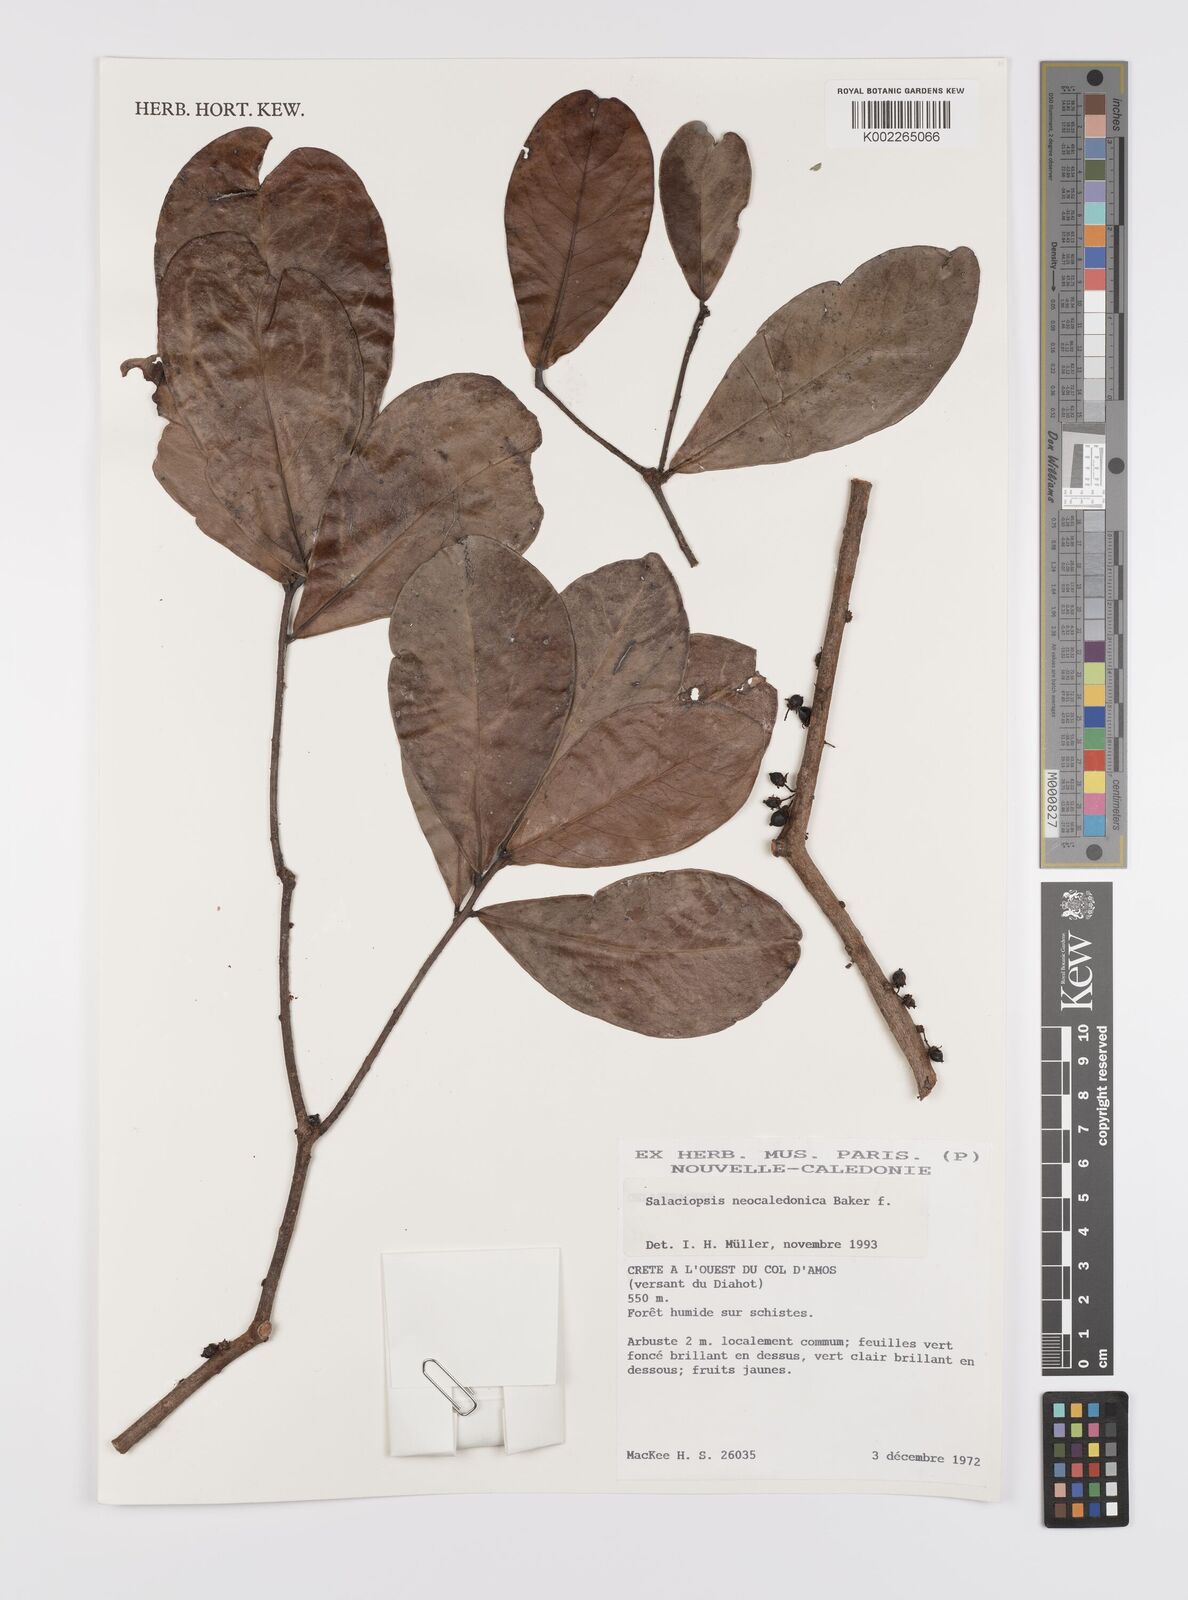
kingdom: Plantae
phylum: Tracheophyta
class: Magnoliopsida
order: Celastrales
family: Celastraceae
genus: Salaciopsis
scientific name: Salaciopsis neocaledonica
